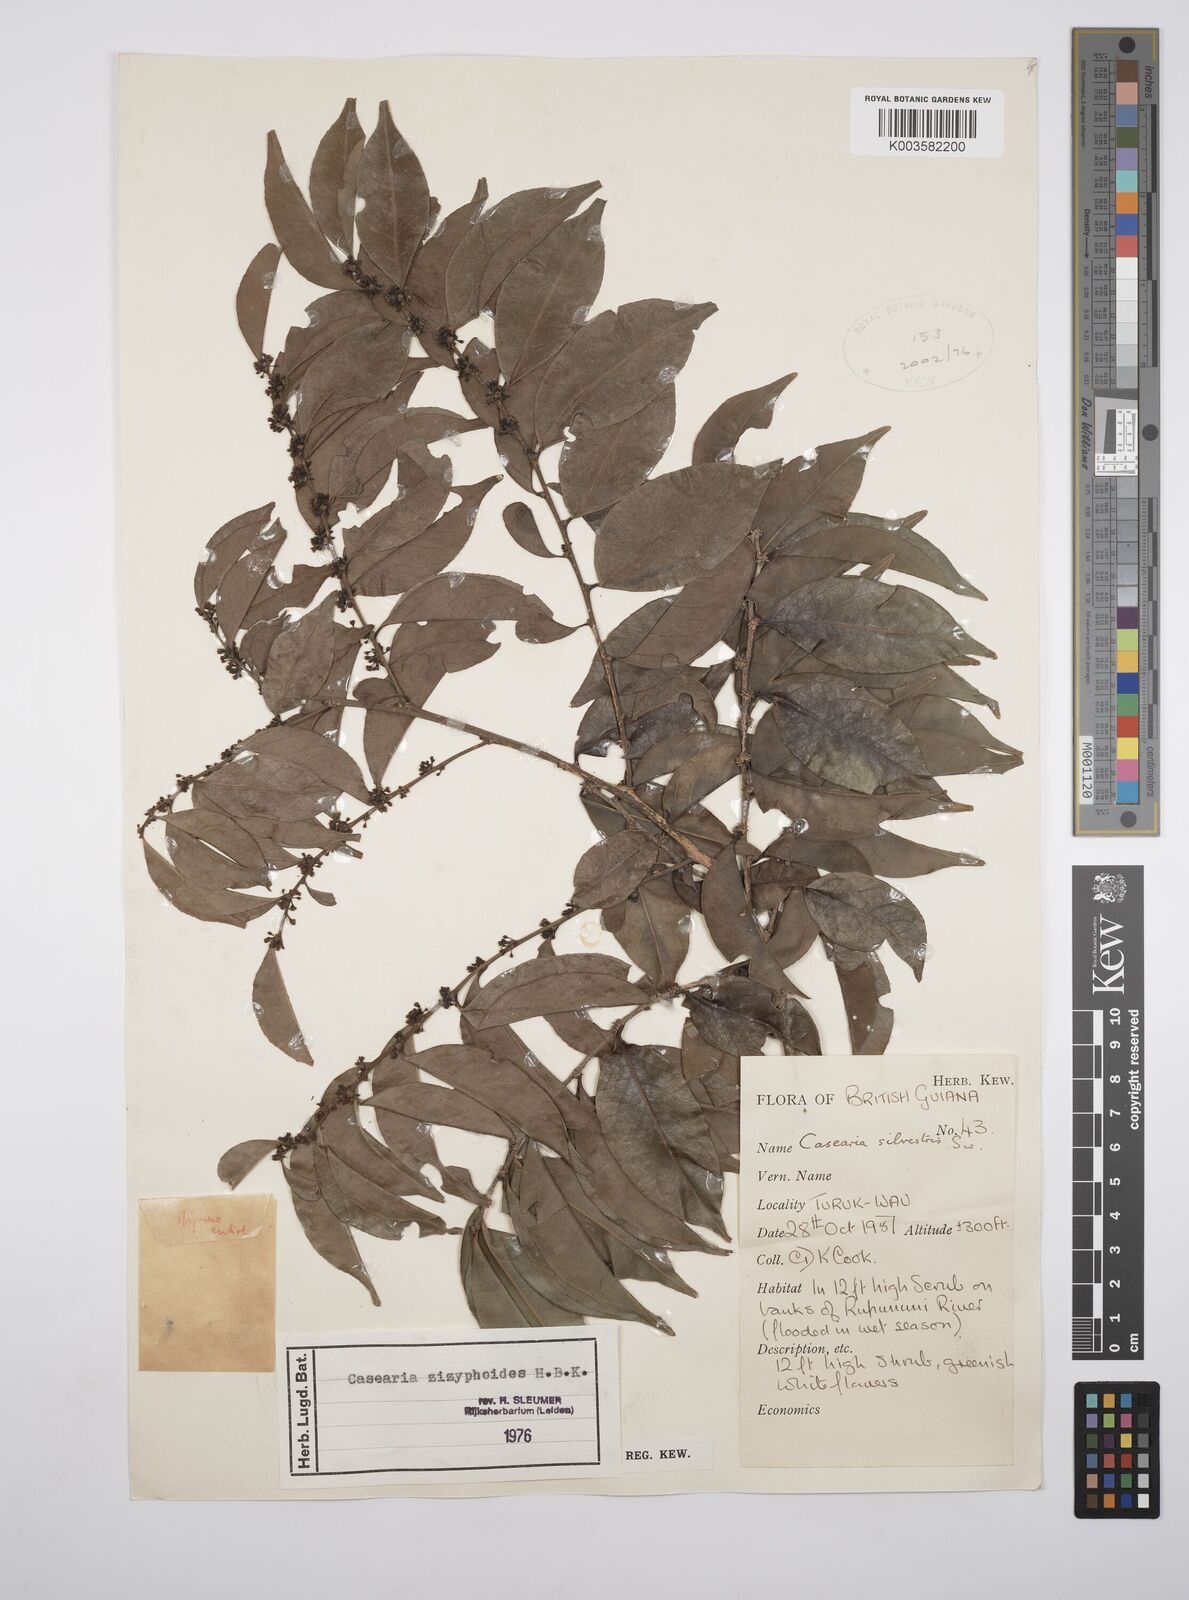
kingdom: Plantae
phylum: Tracheophyta
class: Magnoliopsida
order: Malpighiales
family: Salicaceae
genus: Casearia
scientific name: Casearia zizyphoides
